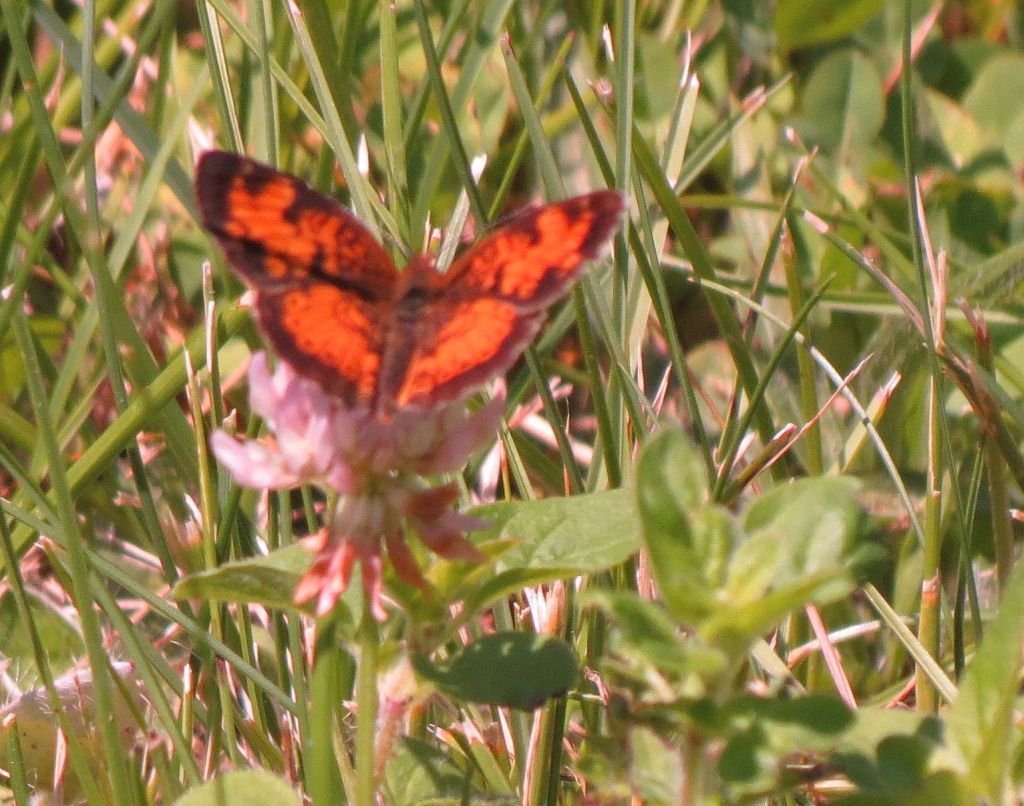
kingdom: Animalia
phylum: Arthropoda
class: Insecta
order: Lepidoptera
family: Nymphalidae
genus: Phyciodes
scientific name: Phyciodes tharos
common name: Northern Crescent
